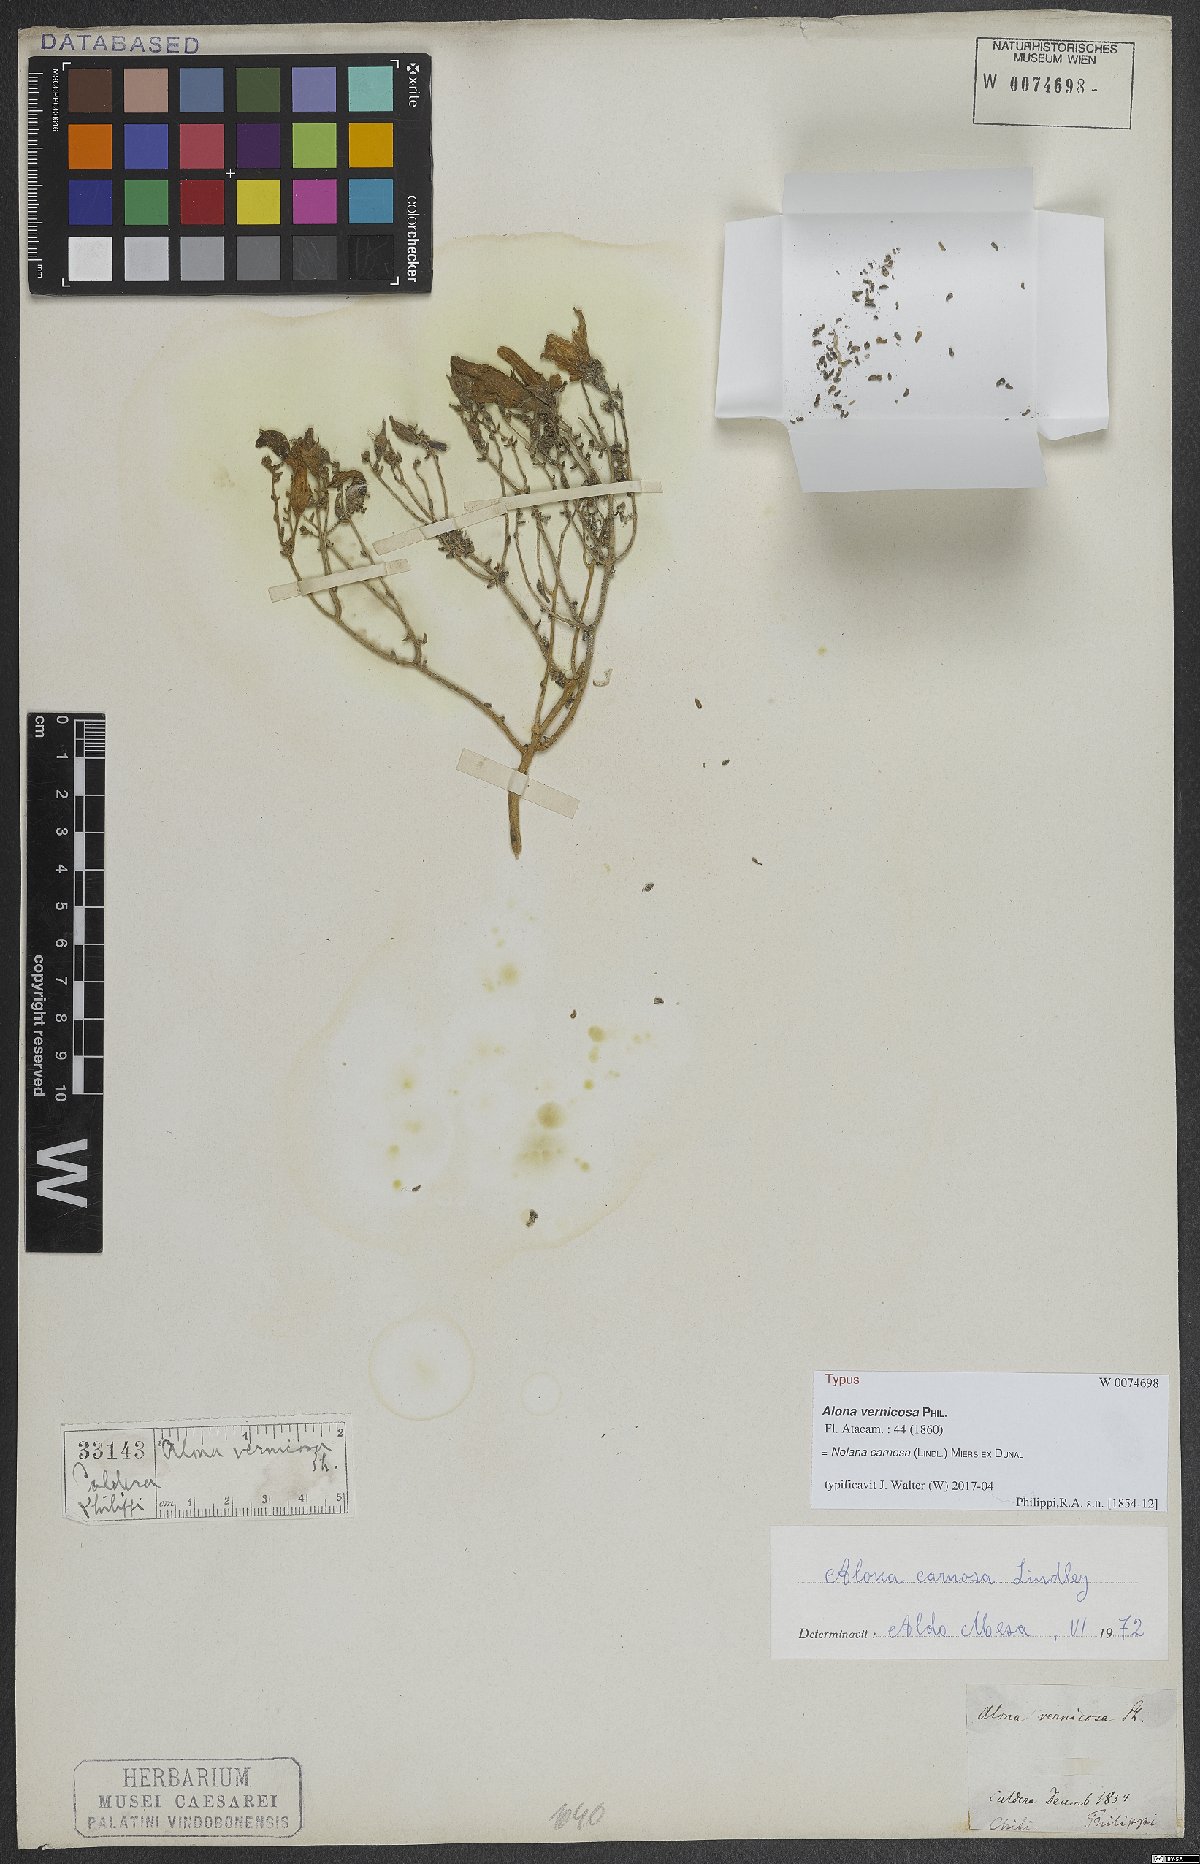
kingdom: Plantae
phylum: Tracheophyta
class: Magnoliopsida
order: Solanales
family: Solanaceae
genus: Nolana
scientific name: Nolana carnosa
